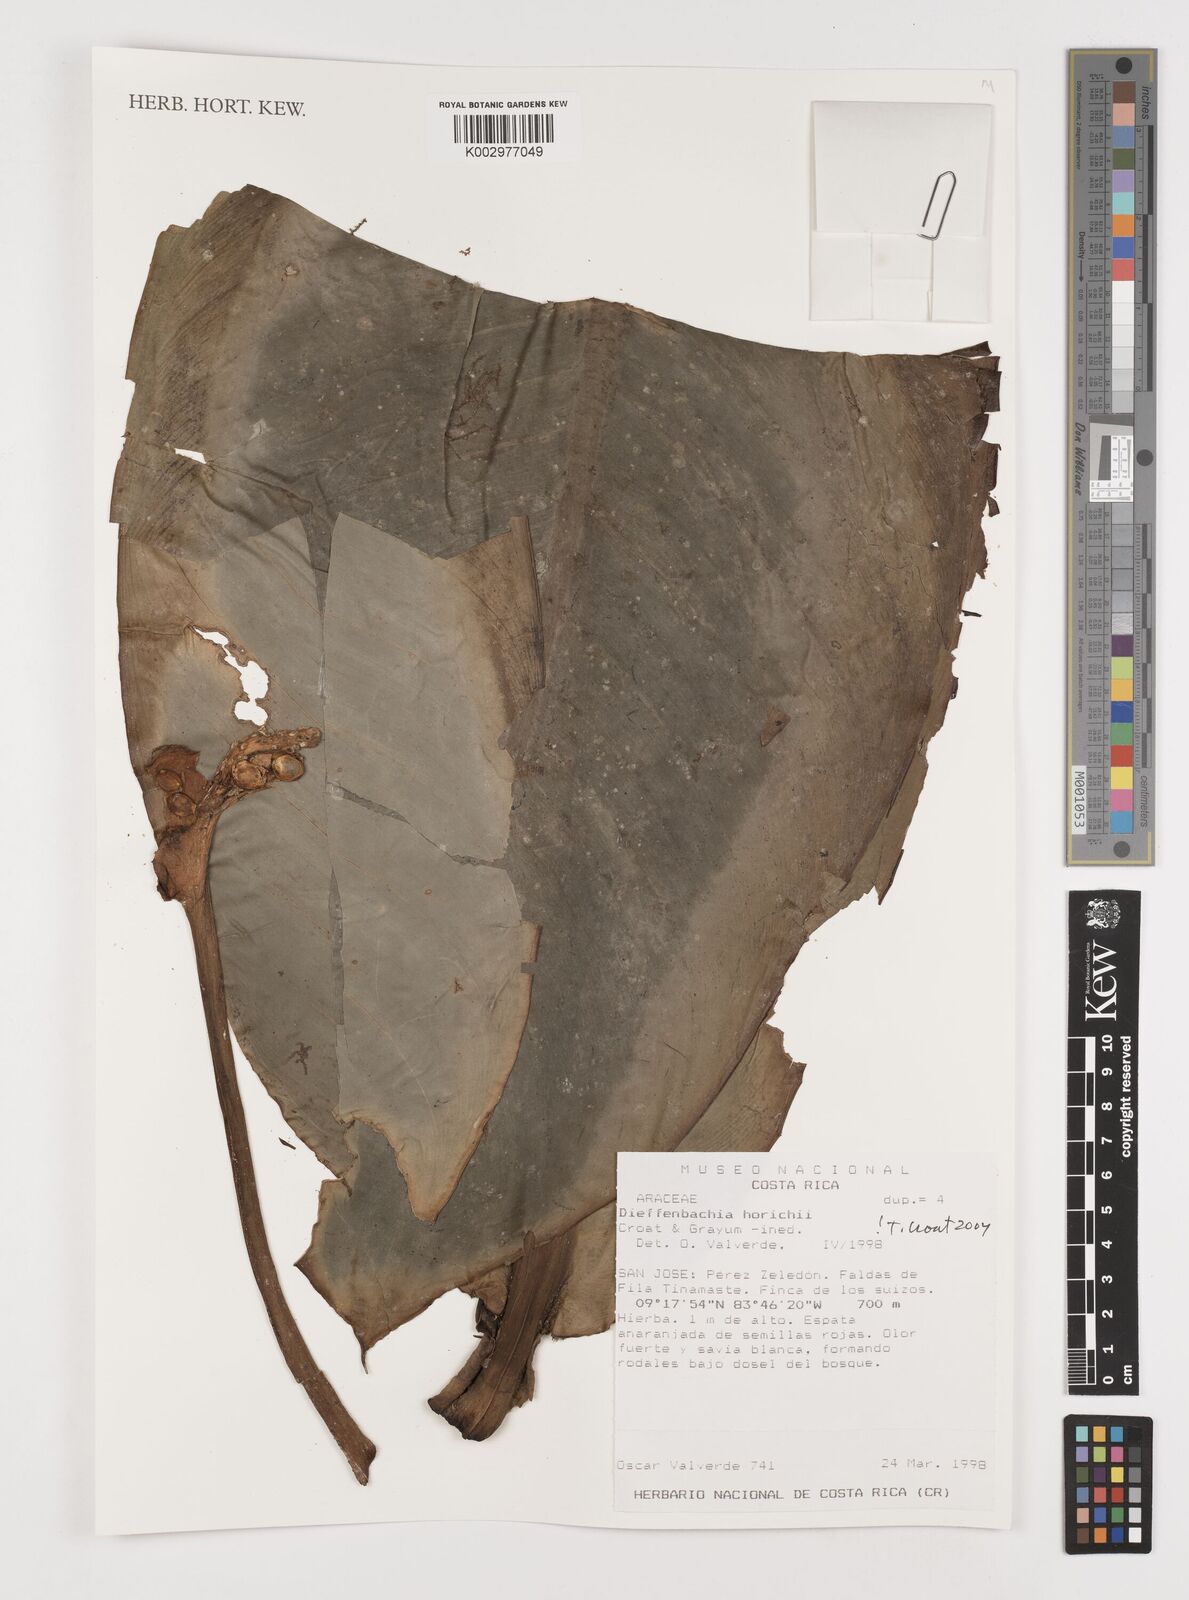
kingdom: Plantae
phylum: Tracheophyta
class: Liliopsida
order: Alismatales
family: Araceae
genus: Dieffenbachia
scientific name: Dieffenbachia horichii
